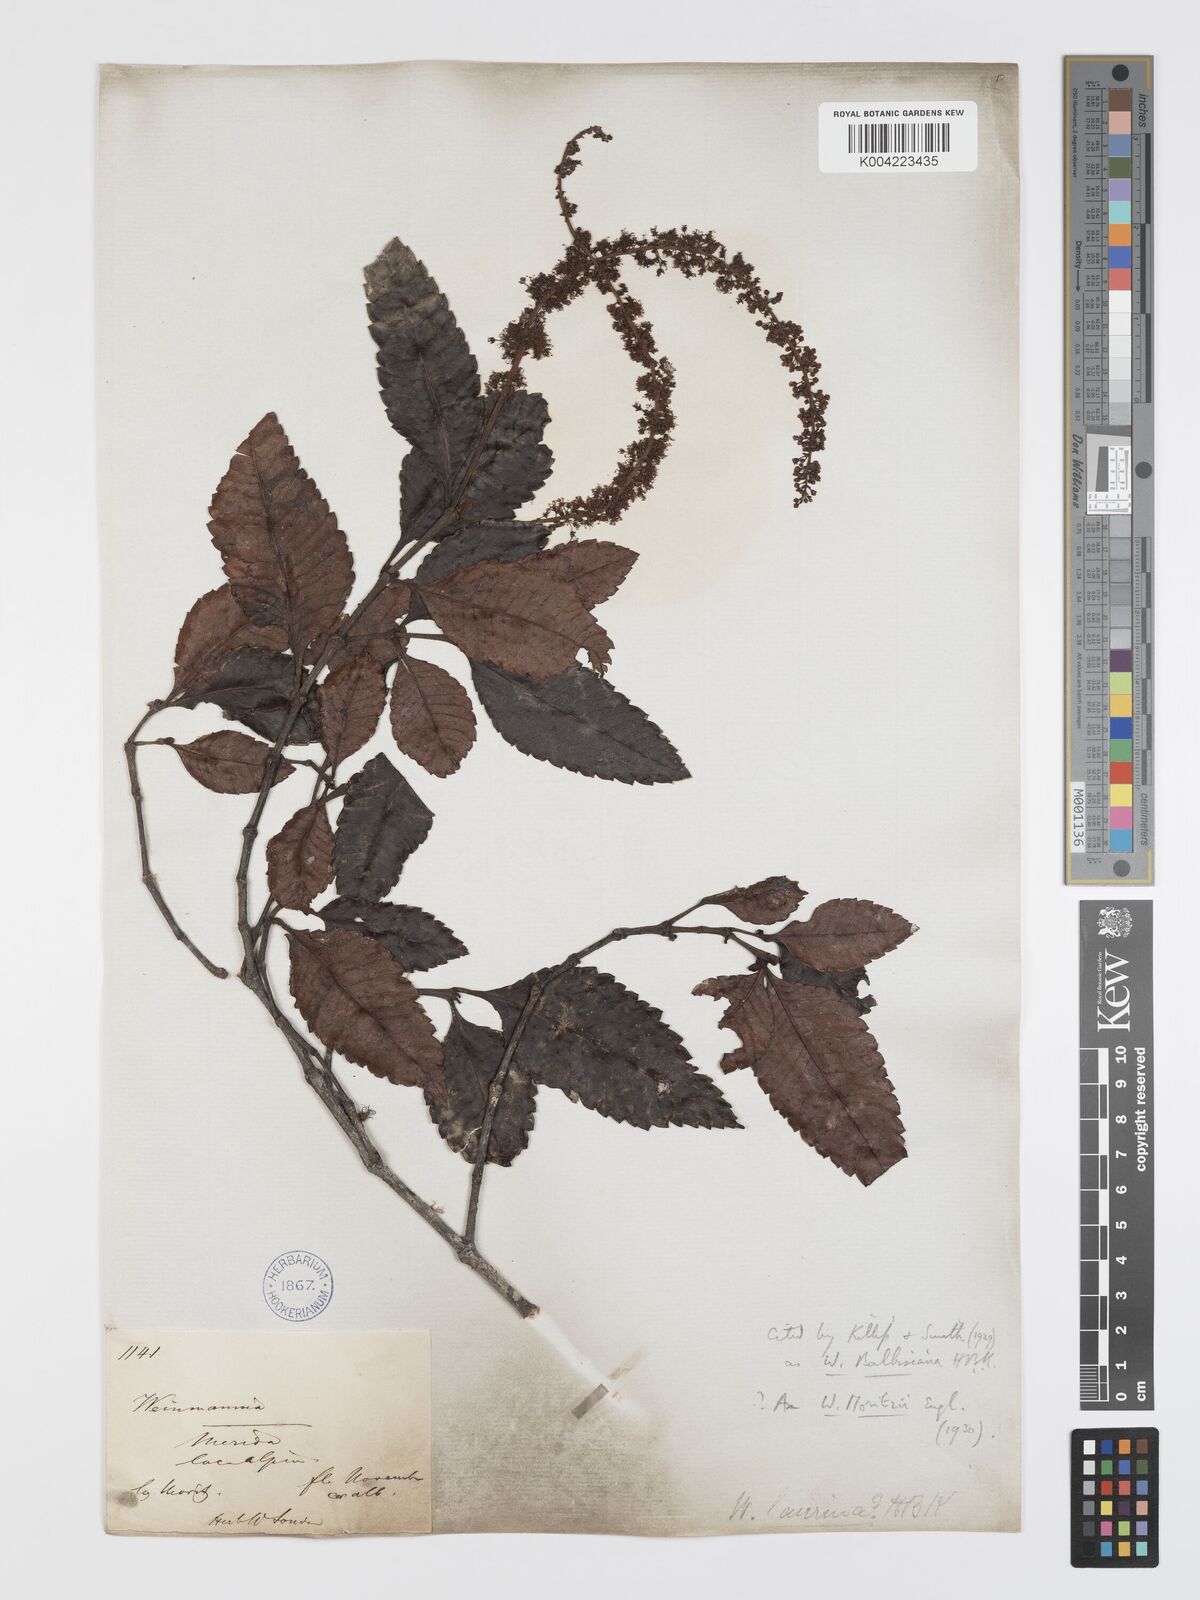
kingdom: Plantae
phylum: Tracheophyta
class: Magnoliopsida
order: Oxalidales
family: Cunoniaceae
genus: Weinmannia
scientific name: Weinmannia balbisana
